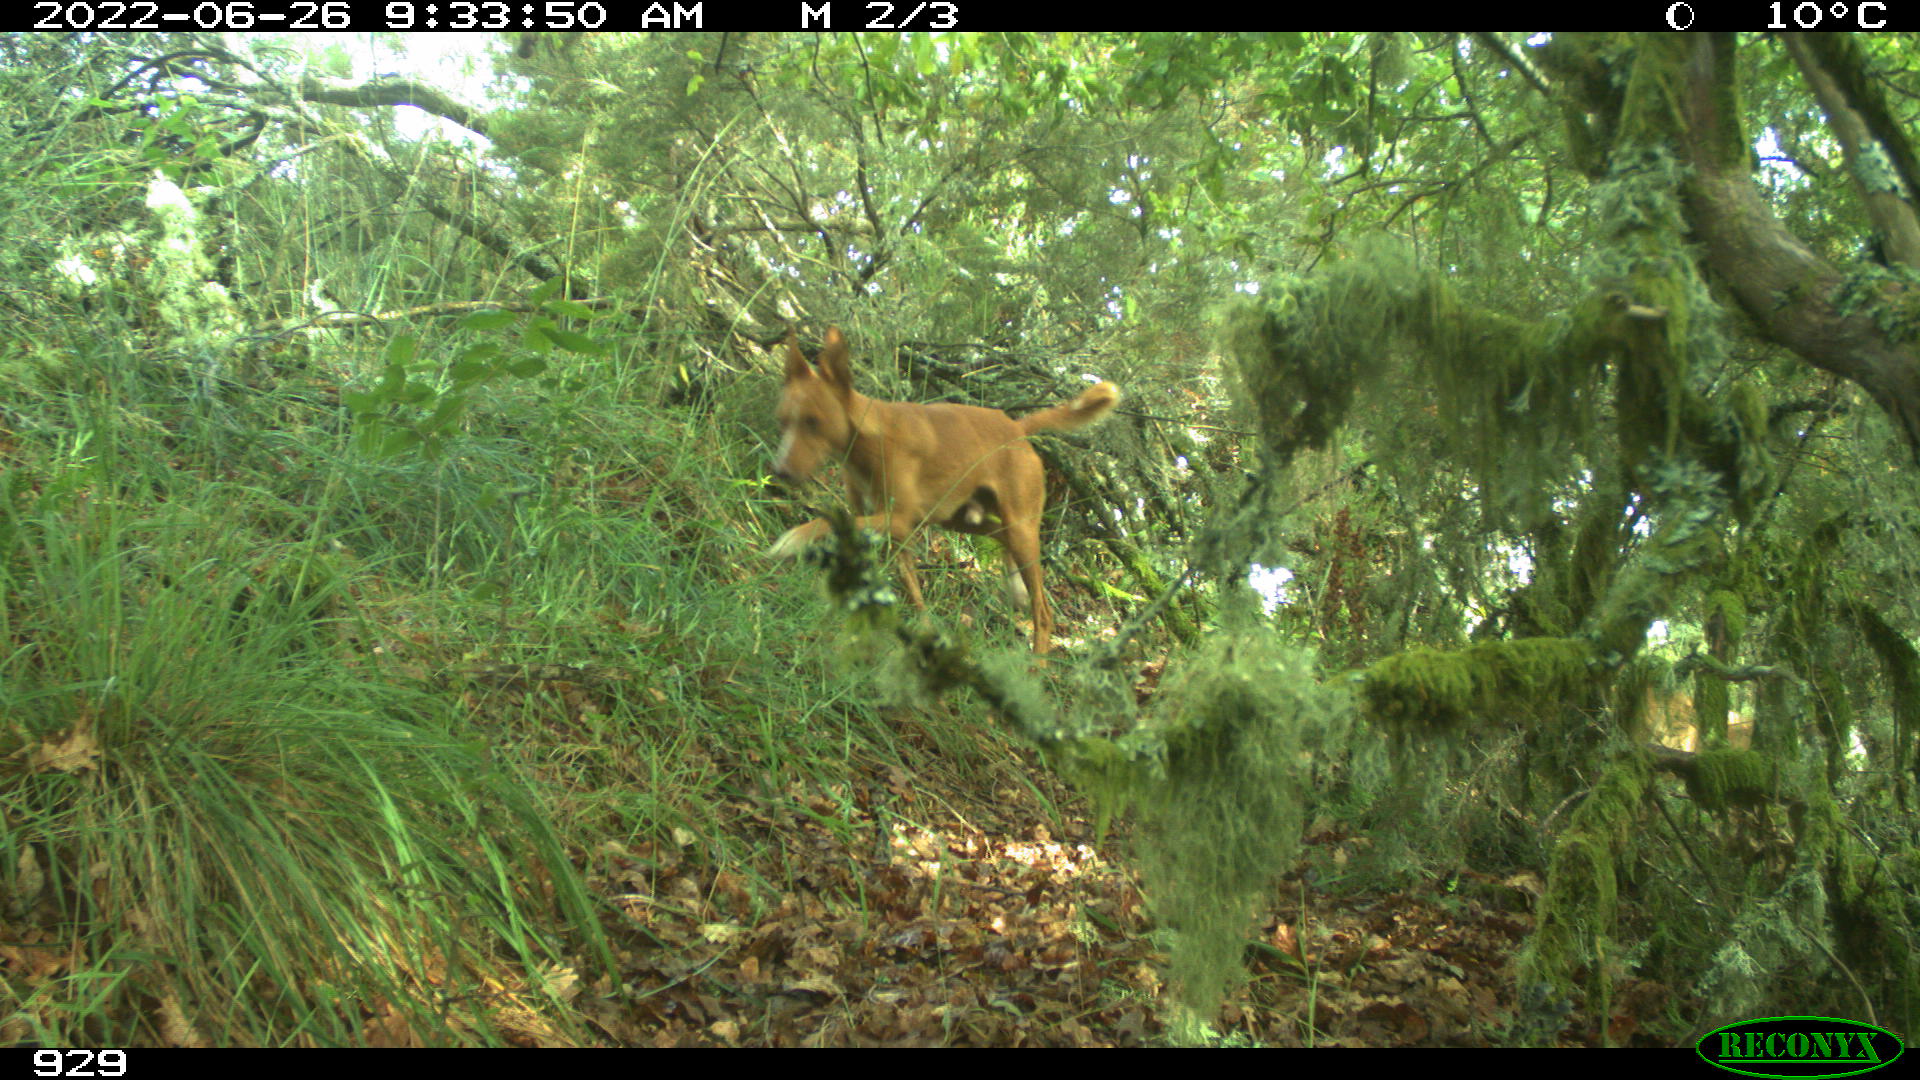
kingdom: Animalia
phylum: Chordata
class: Mammalia
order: Carnivora
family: Canidae
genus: Canis
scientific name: Canis lupus
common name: Gray wolf
